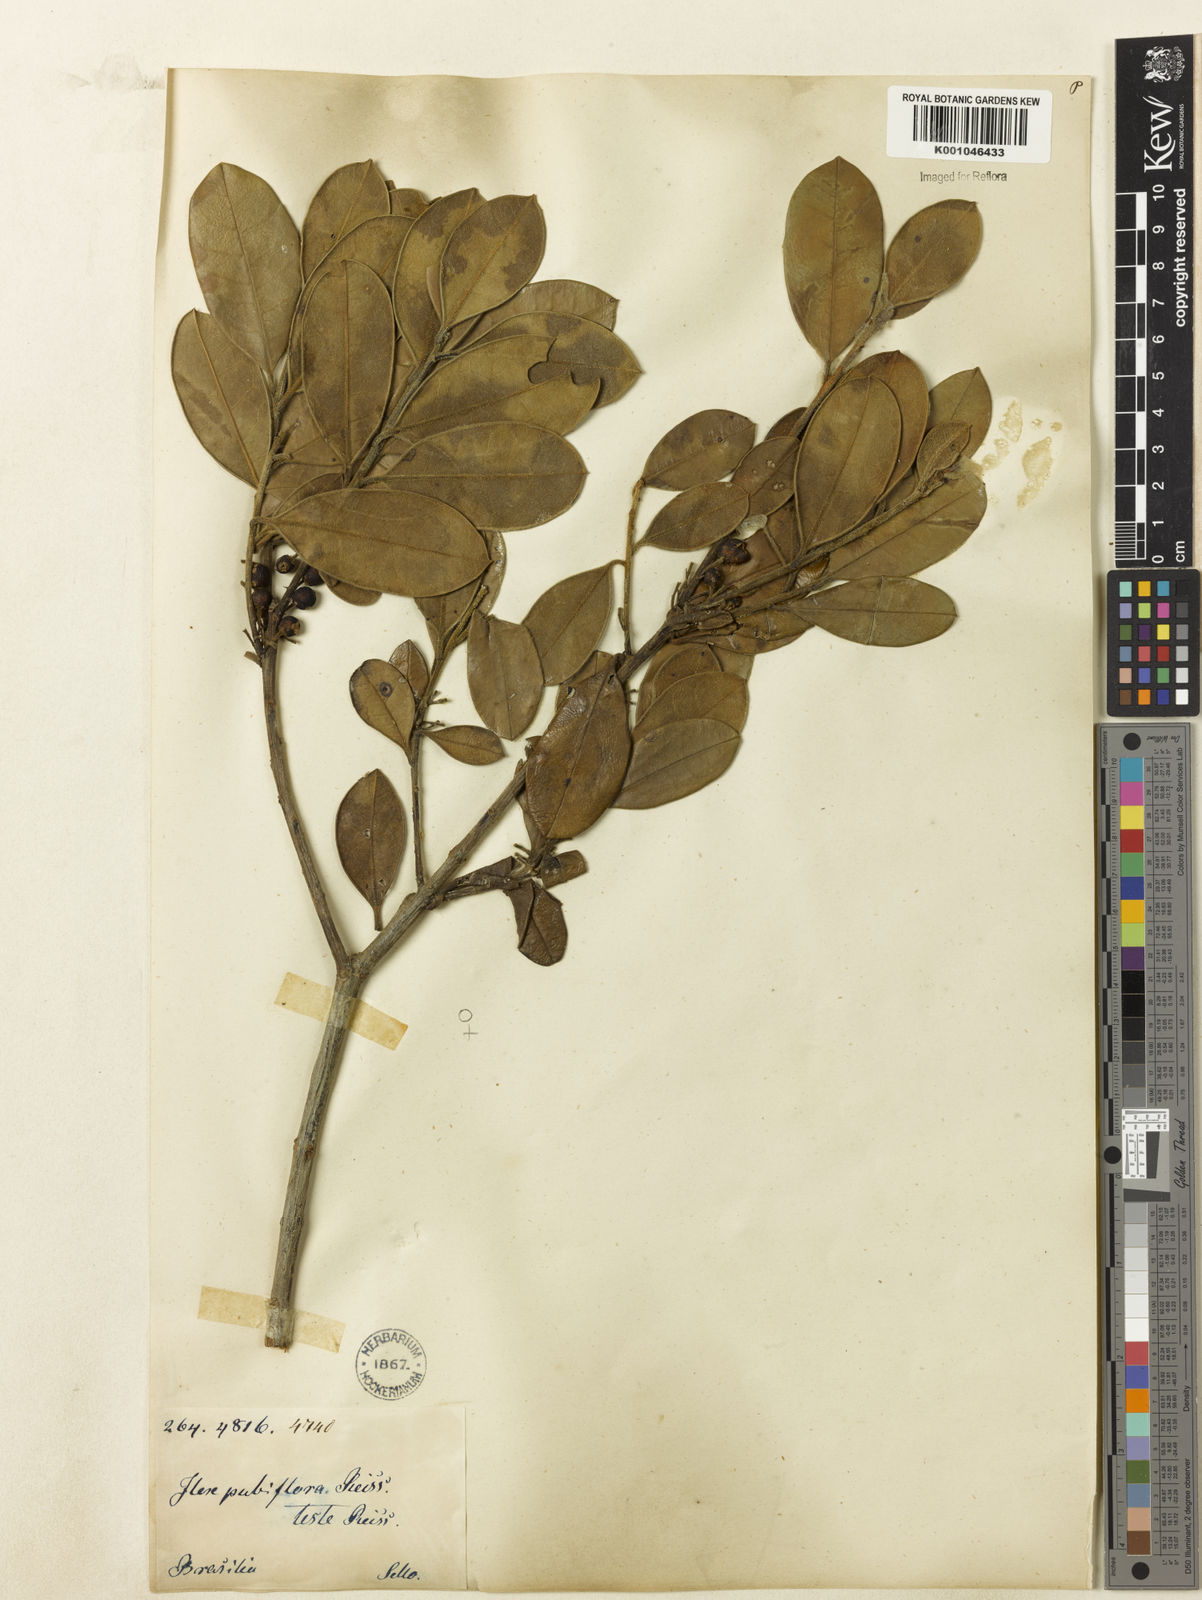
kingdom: Plantae
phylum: Tracheophyta
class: Magnoliopsida
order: Aquifoliales
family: Aquifoliaceae
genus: Ilex
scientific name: Ilex brasiliensis
